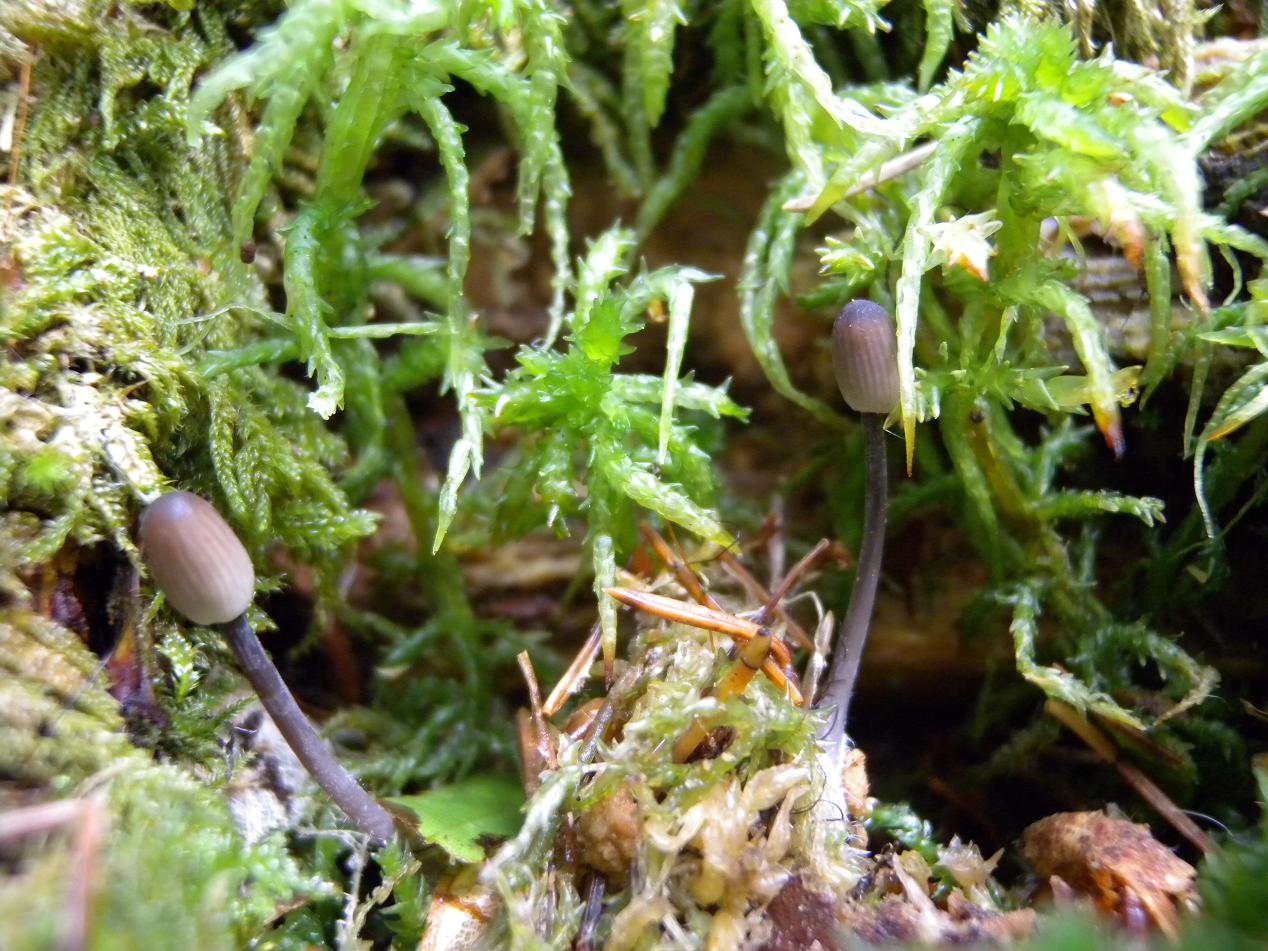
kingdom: Fungi
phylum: Basidiomycota
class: Agaricomycetes
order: Agaricales
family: Mycenaceae
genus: Mycena
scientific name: Mycena galopus
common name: hvidmælket huesvamp
